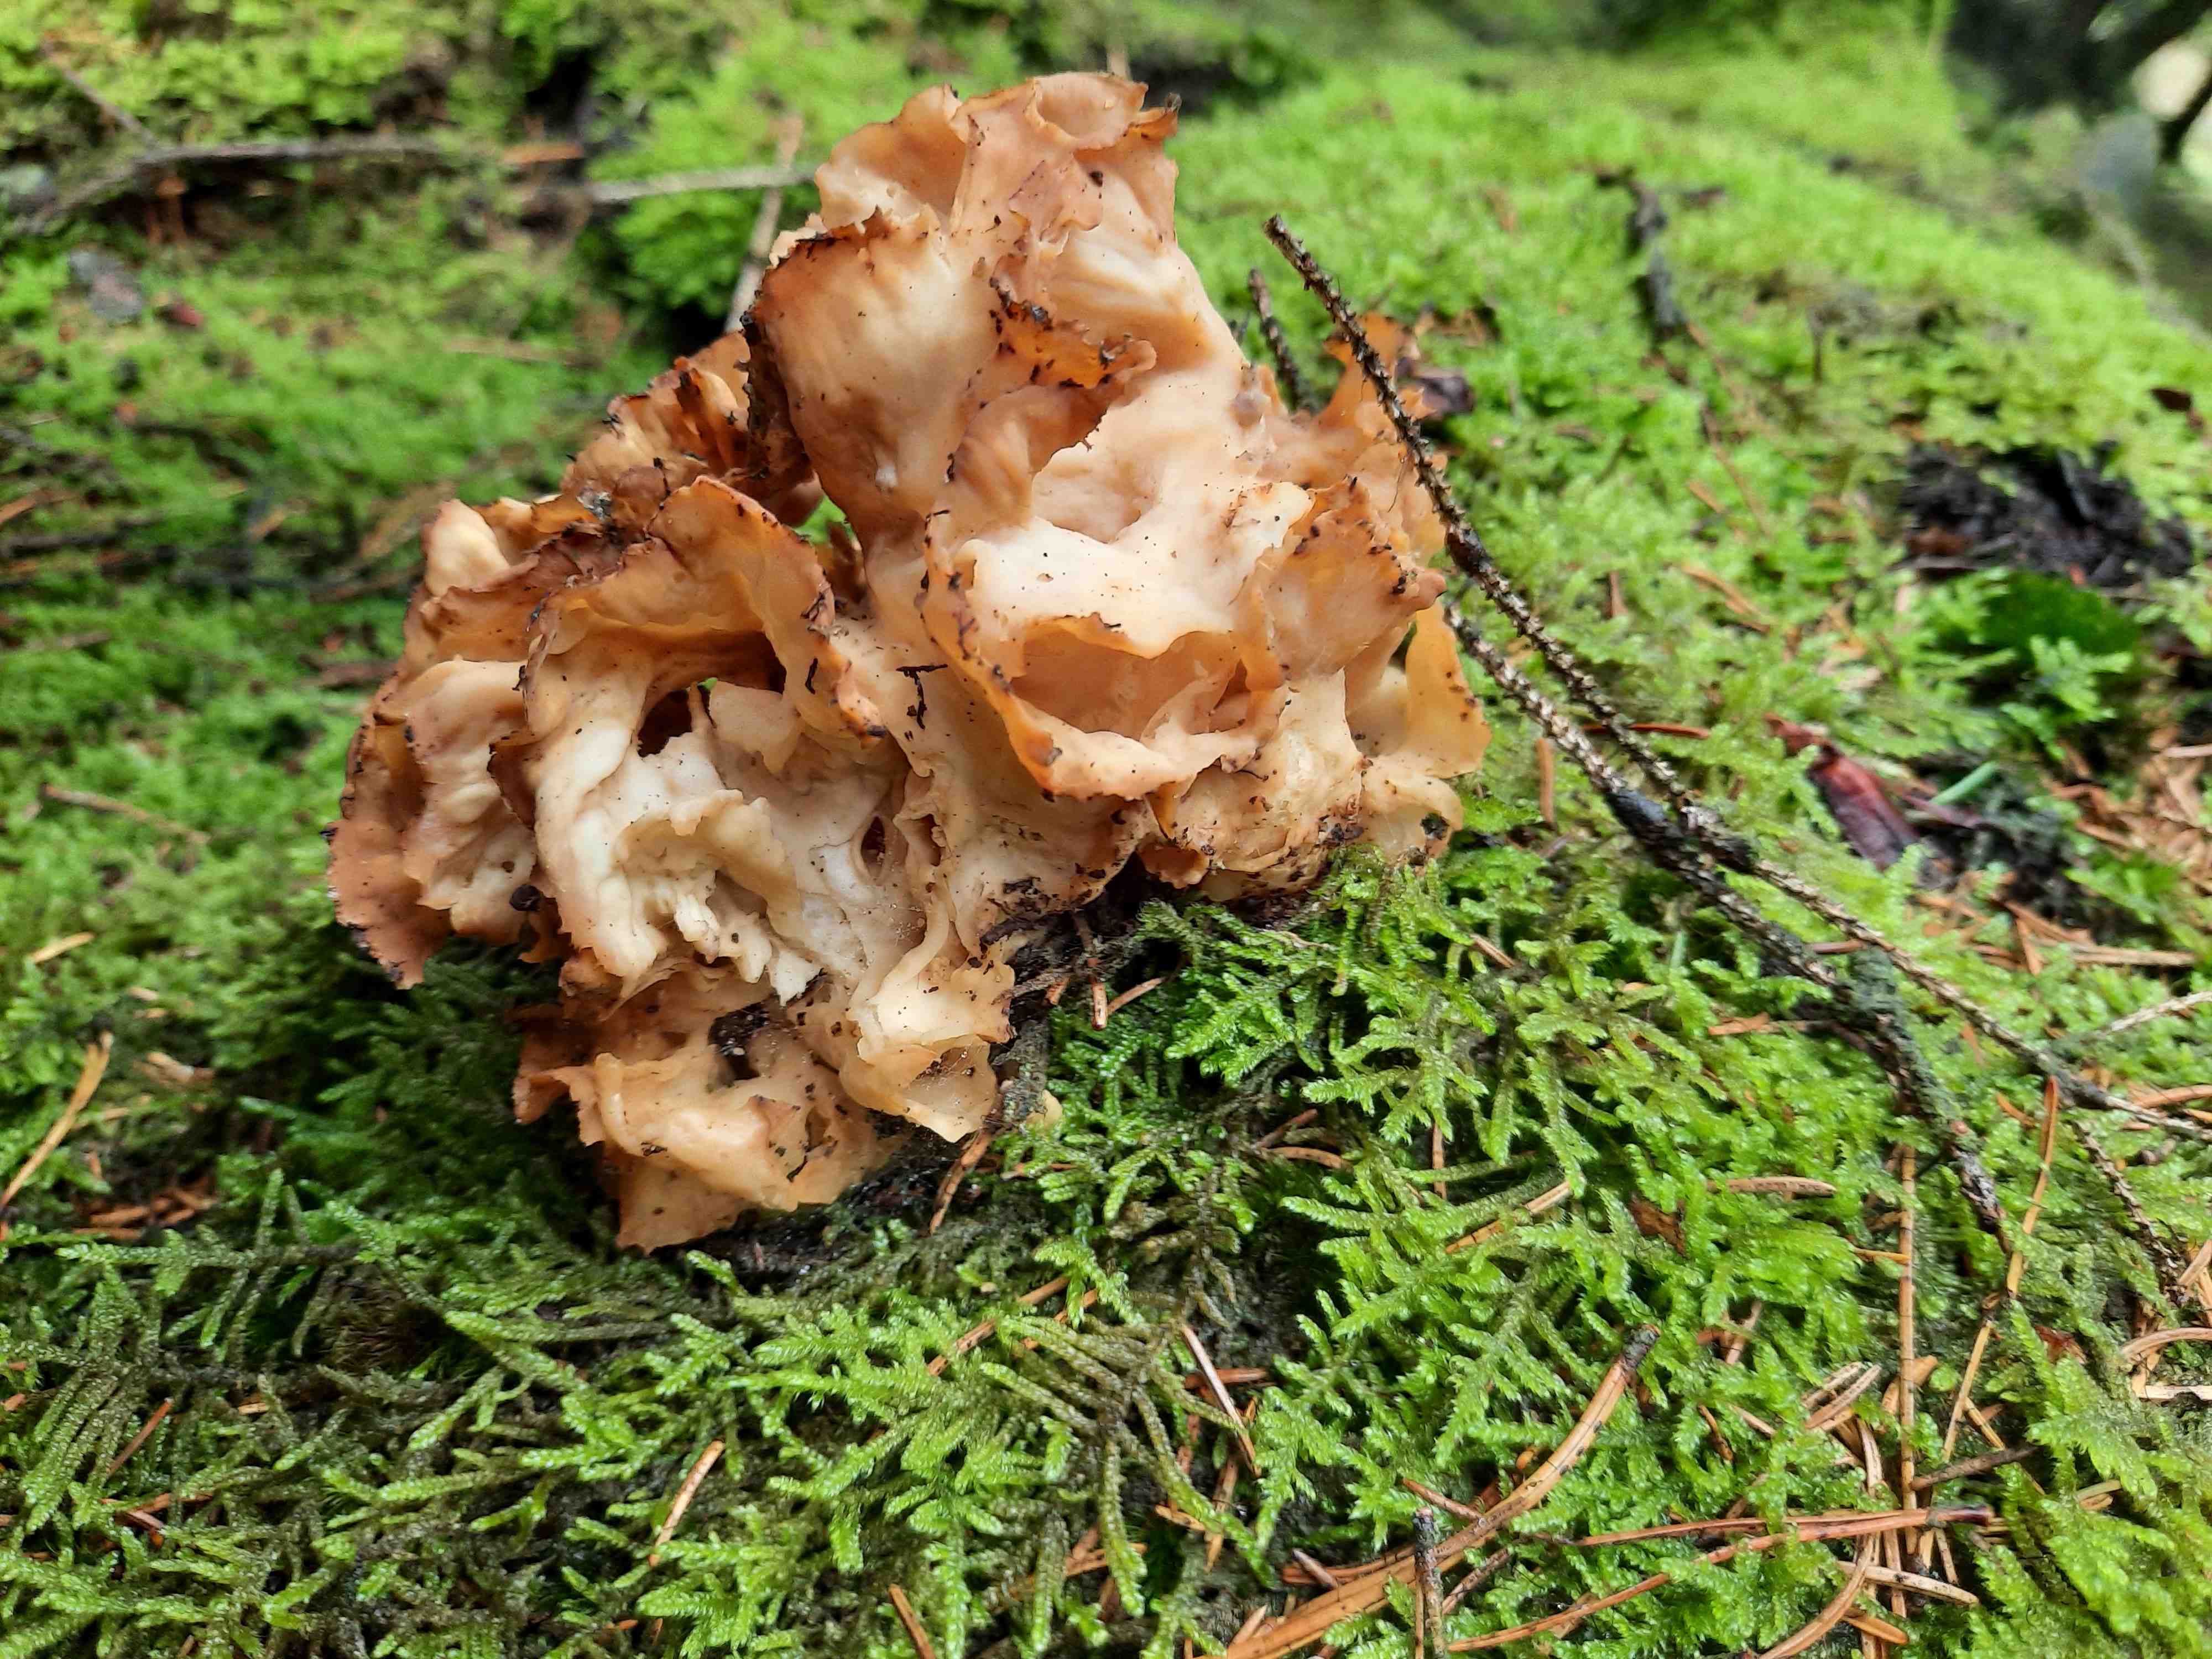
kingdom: Fungi
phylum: Basidiomycota
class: Agaricomycetes
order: Polyporales
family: Sparassidaceae
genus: Sparassis
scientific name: Sparassis crispa
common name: kruset blomkålssvamp
